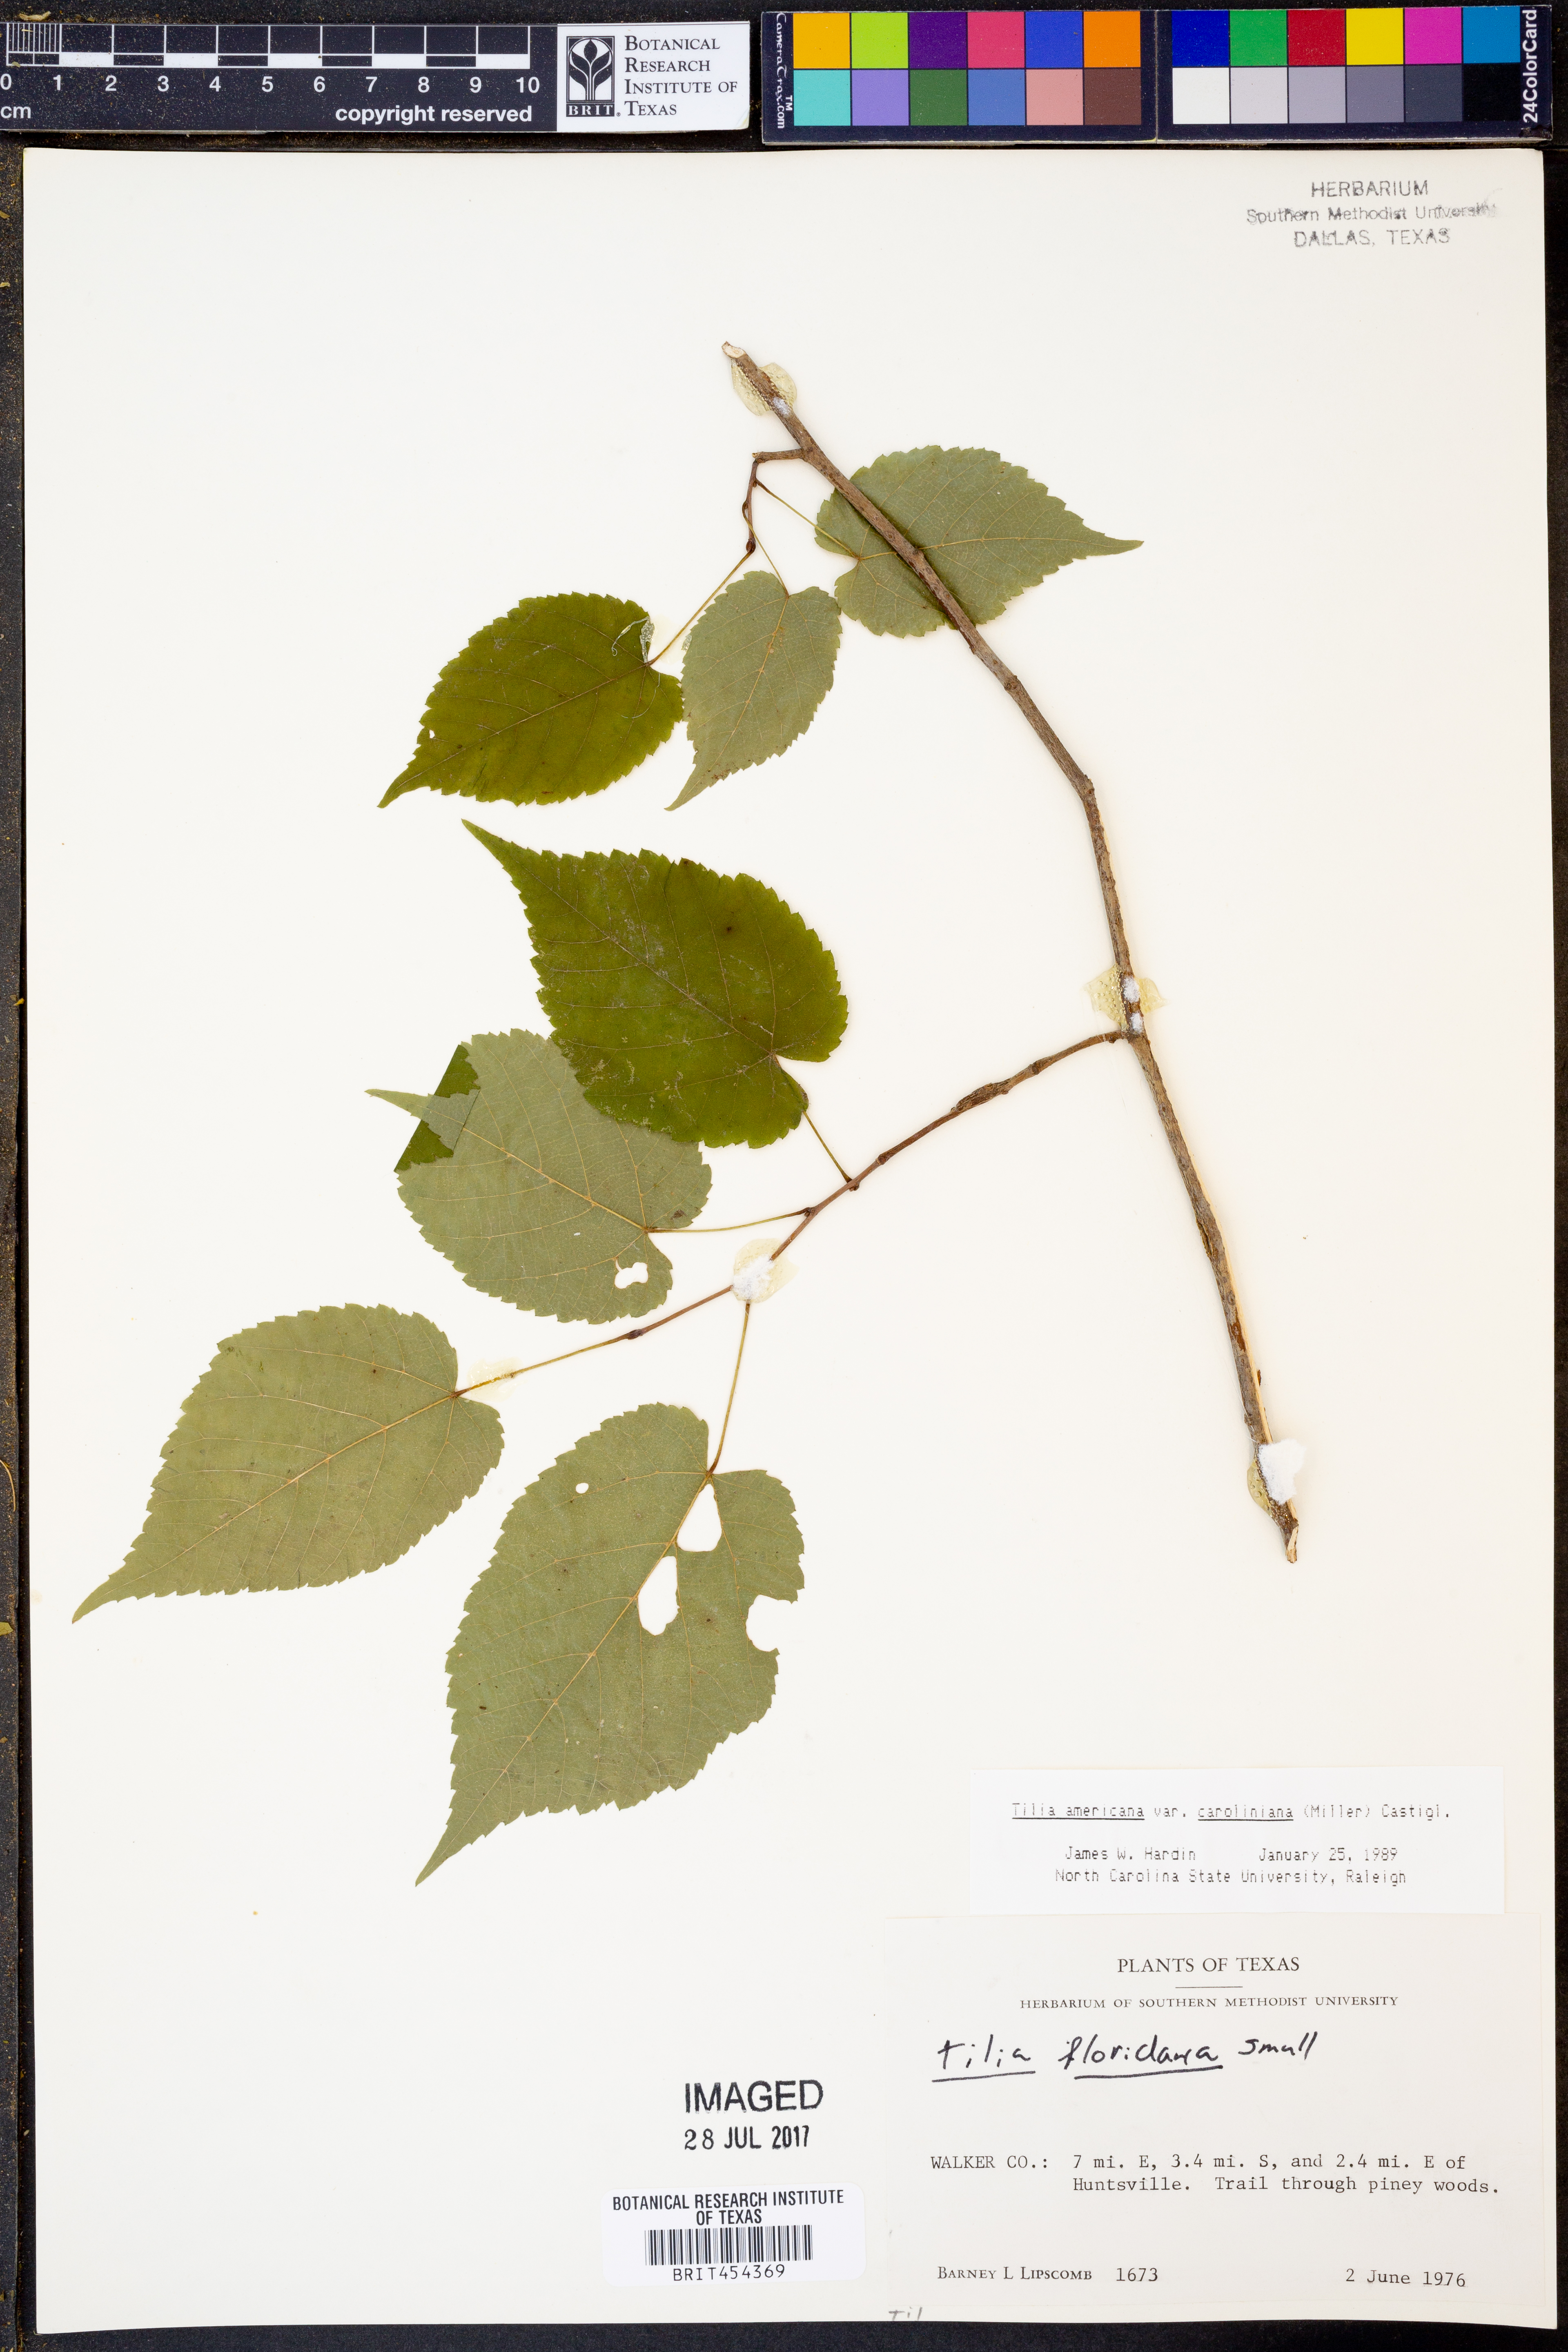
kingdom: Plantae
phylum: Tracheophyta
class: Magnoliopsida
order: Malvales
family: Malvaceae
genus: Tilia
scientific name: Tilia americana
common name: Basswood
